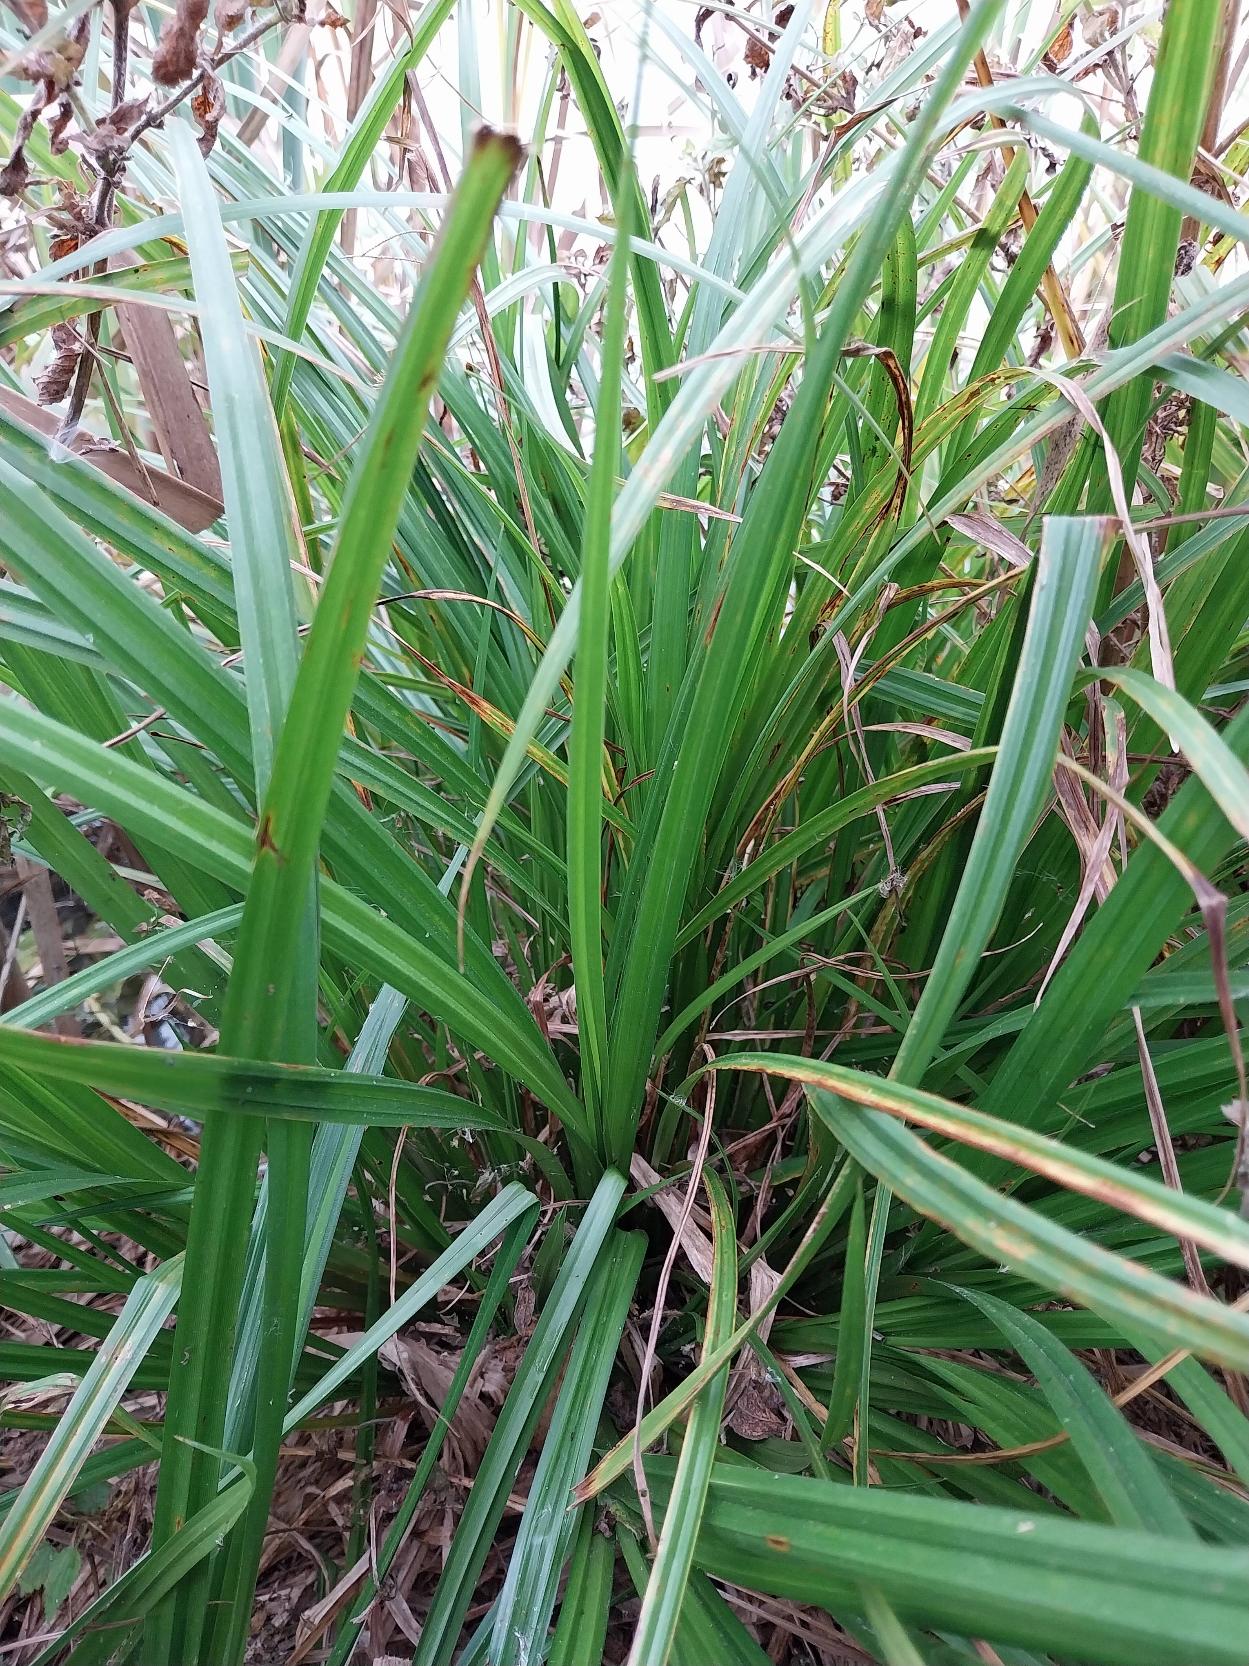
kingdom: Plantae
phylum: Tracheophyta
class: Liliopsida
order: Poales
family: Cyperaceae
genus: Carex
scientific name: Carex pseudocyperus
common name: Knippe-star
